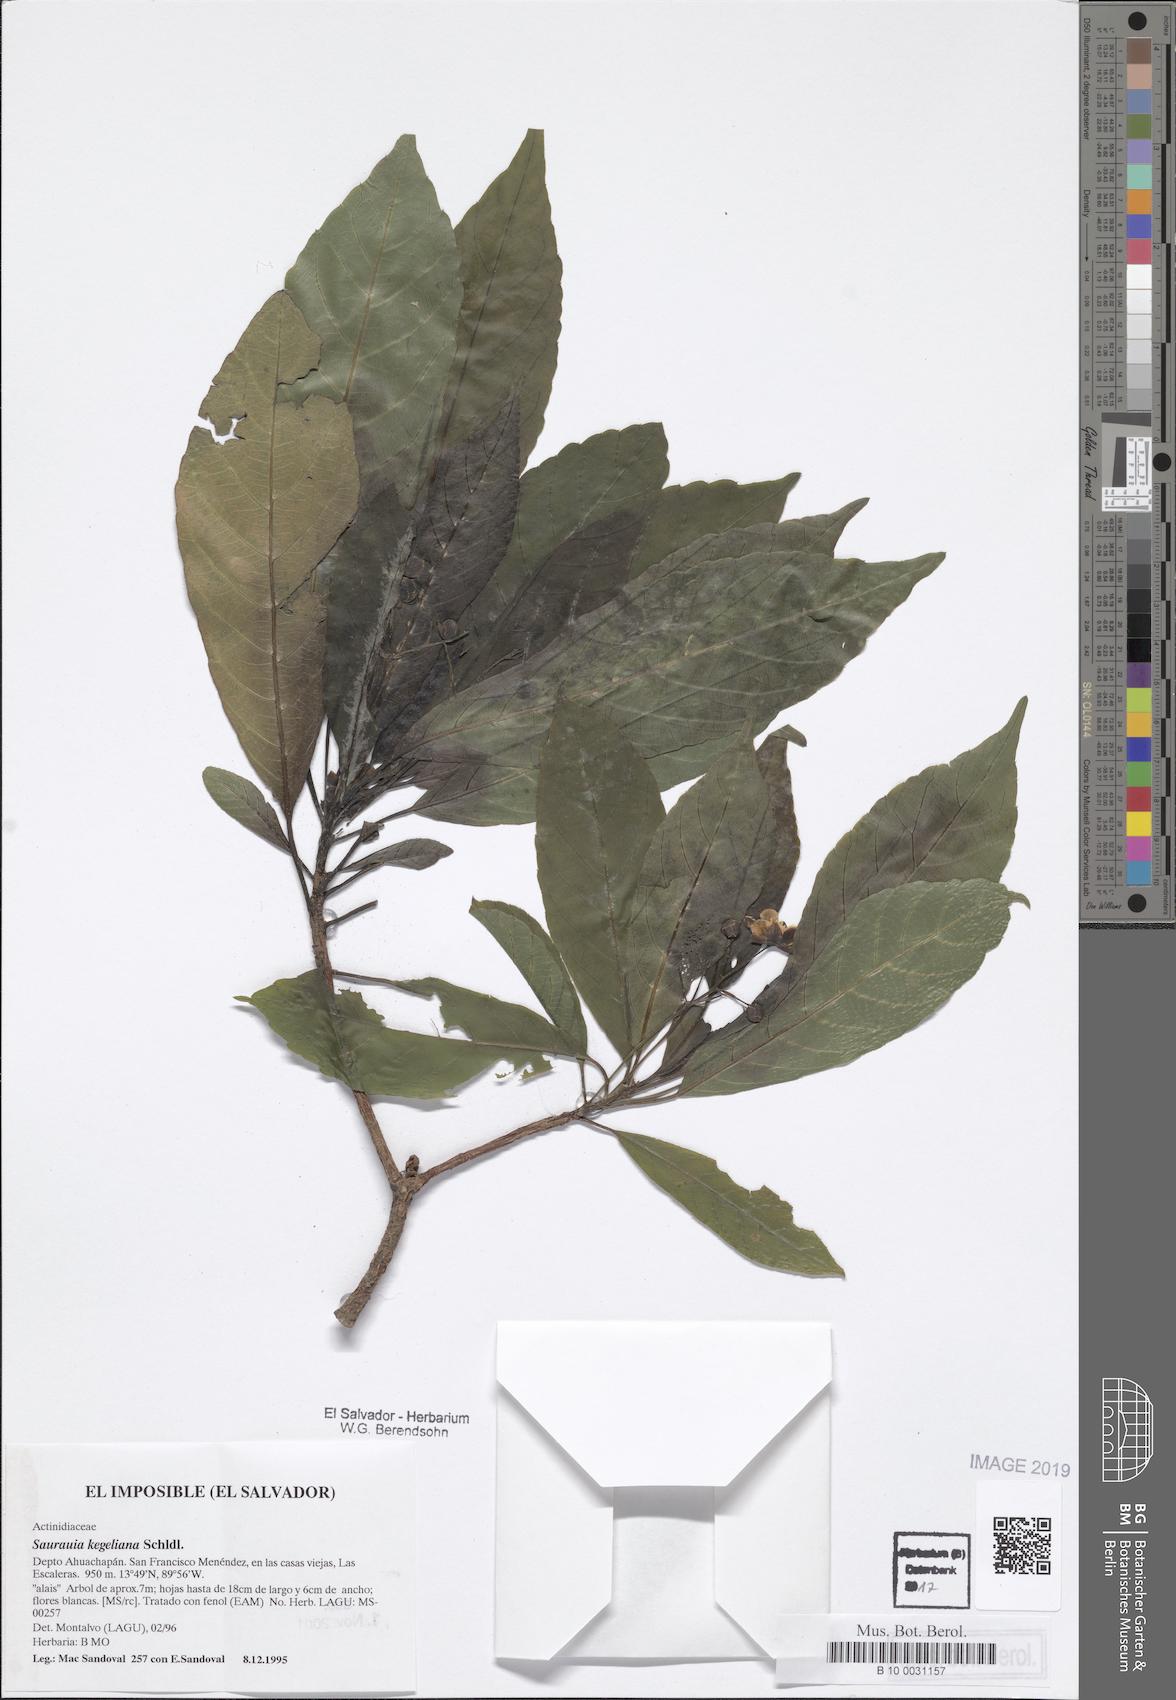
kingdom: Plantae
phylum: Tracheophyta
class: Magnoliopsida
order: Ericales
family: Actinidiaceae
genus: Saurauia
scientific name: Saurauia kegeliana
